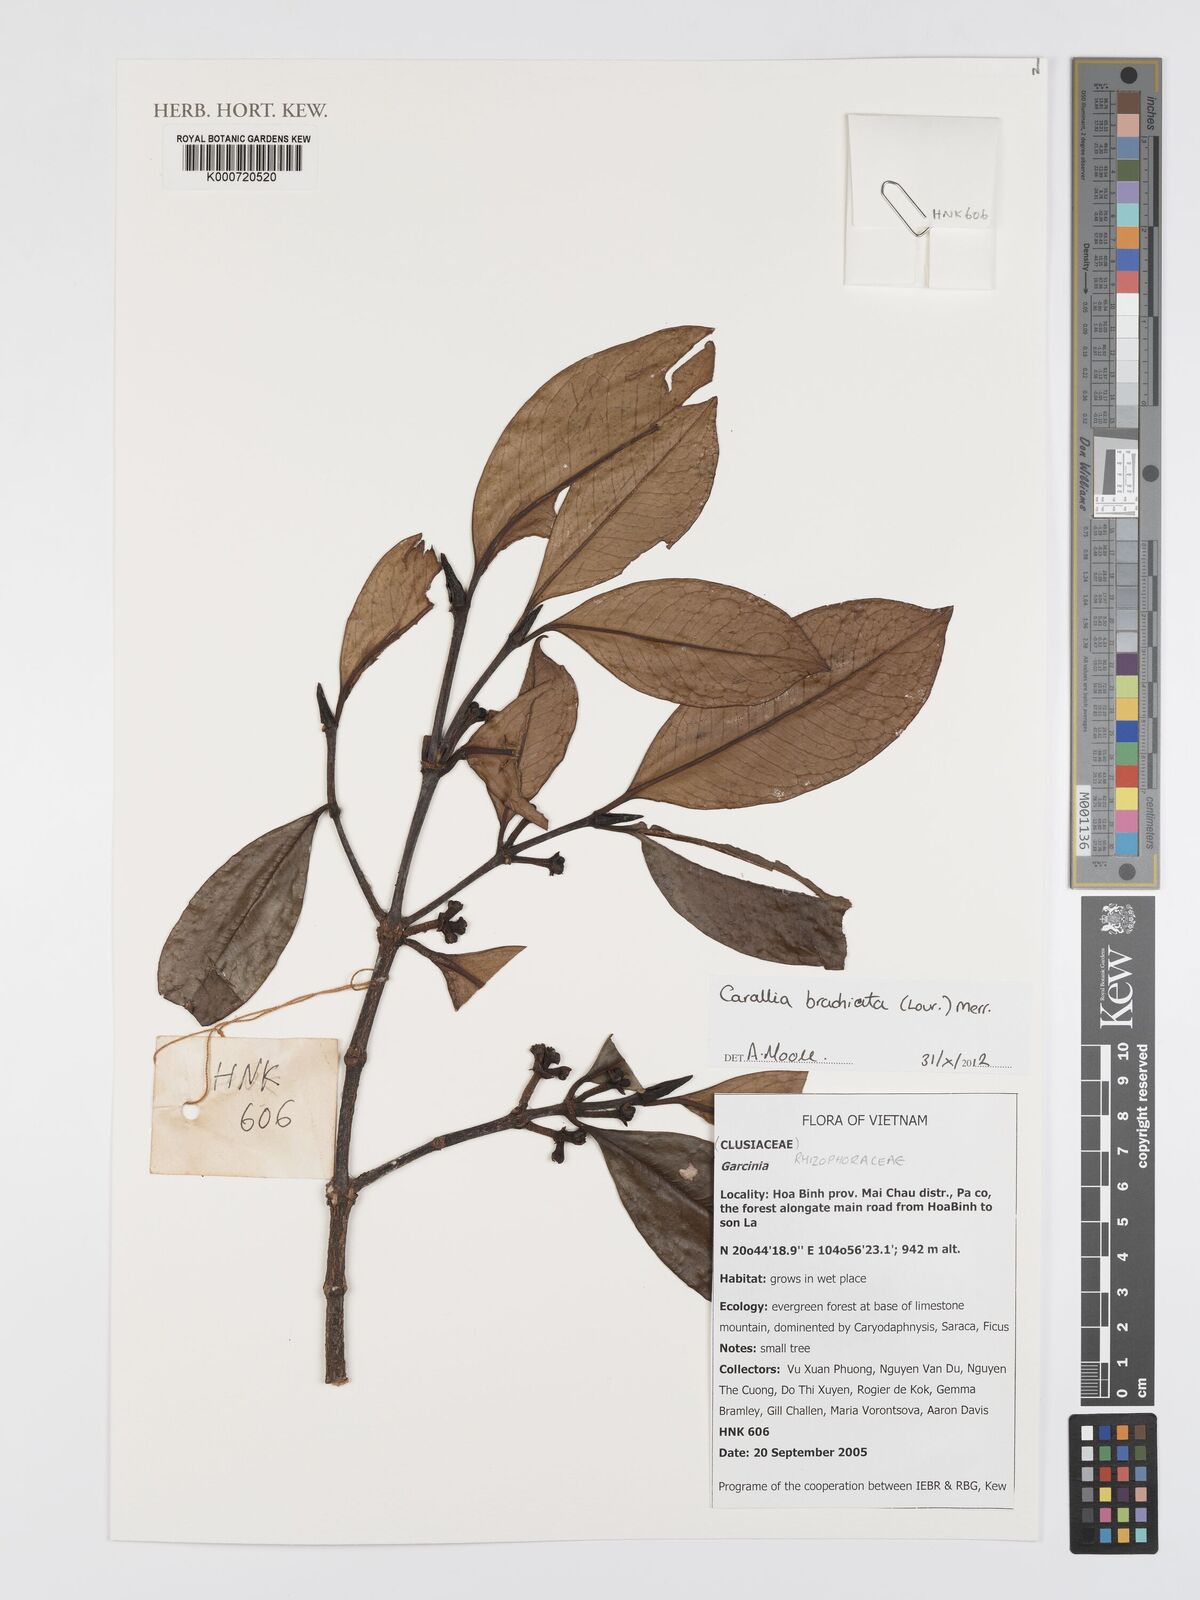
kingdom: Plantae
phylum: Tracheophyta
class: Magnoliopsida
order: Malpighiales
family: Rhizophoraceae
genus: Carallia
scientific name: Carallia brachiata
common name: Carallawood
